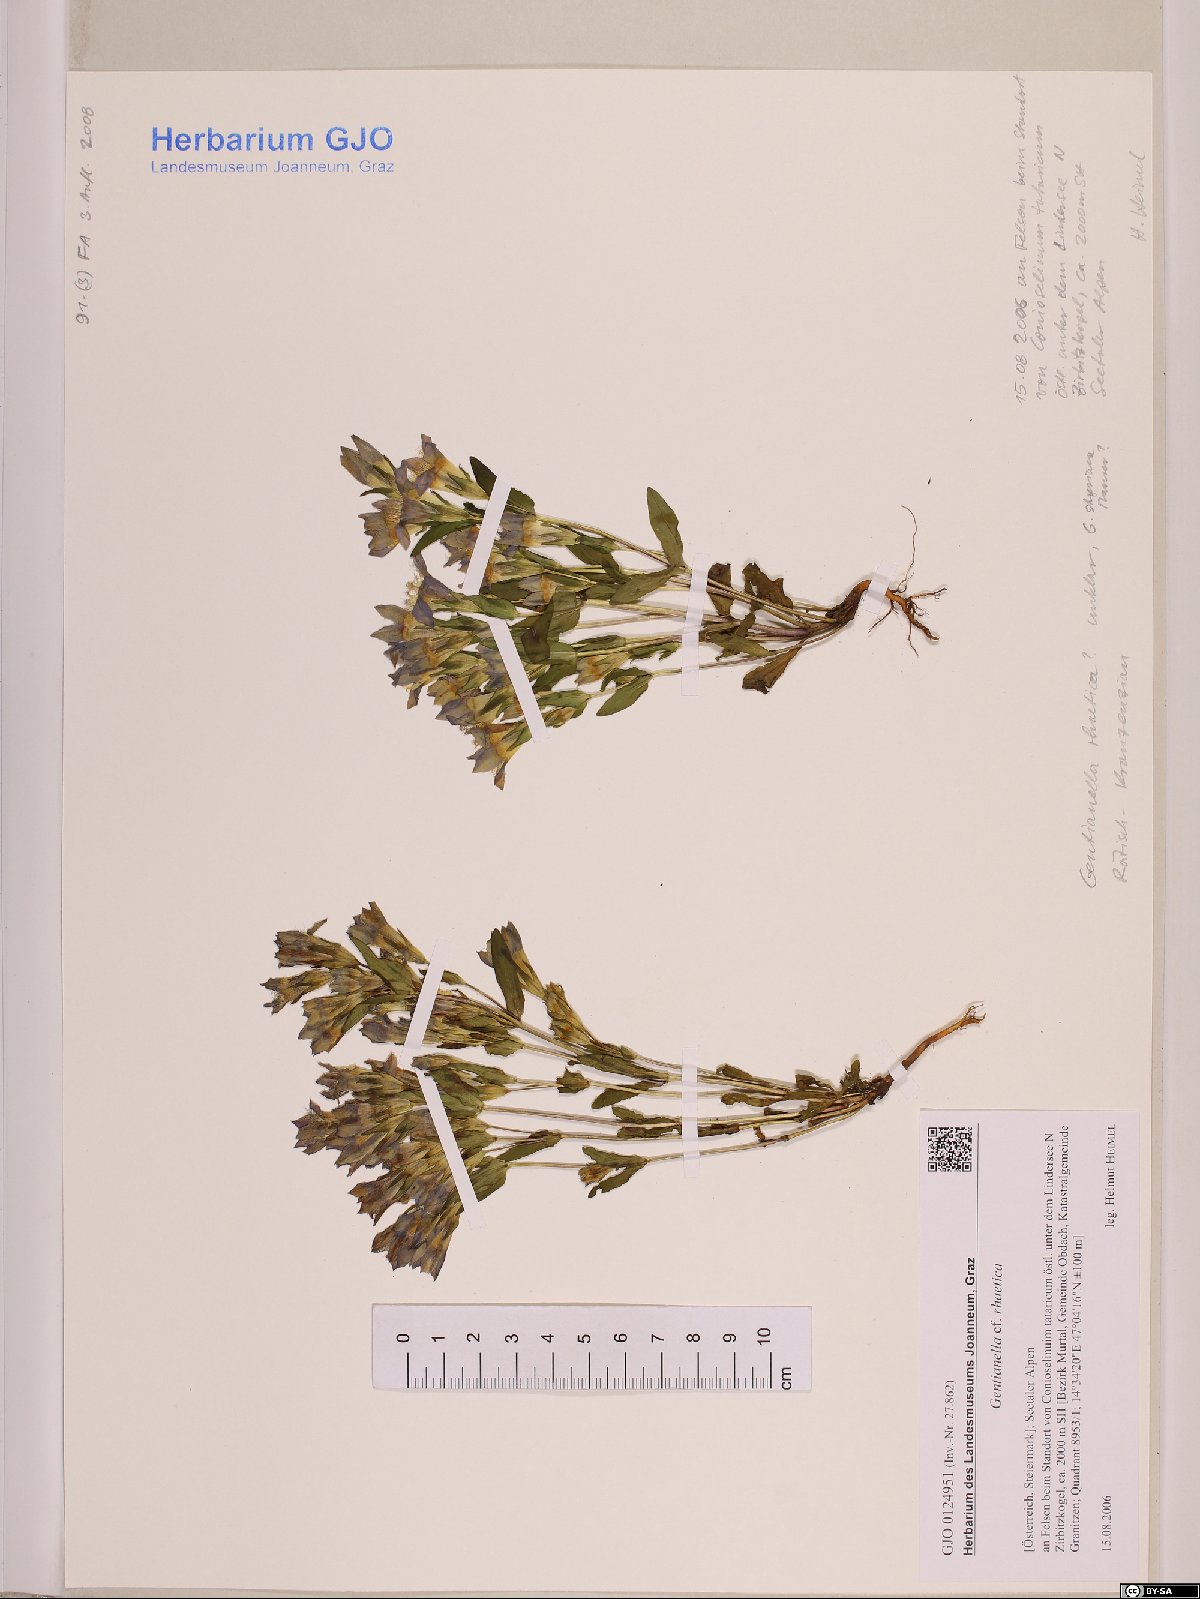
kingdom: Plantae
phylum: Tracheophyta
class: Magnoliopsida
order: Gentianales
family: Gentianaceae
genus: Gentianella
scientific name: Gentianella rhaetica
